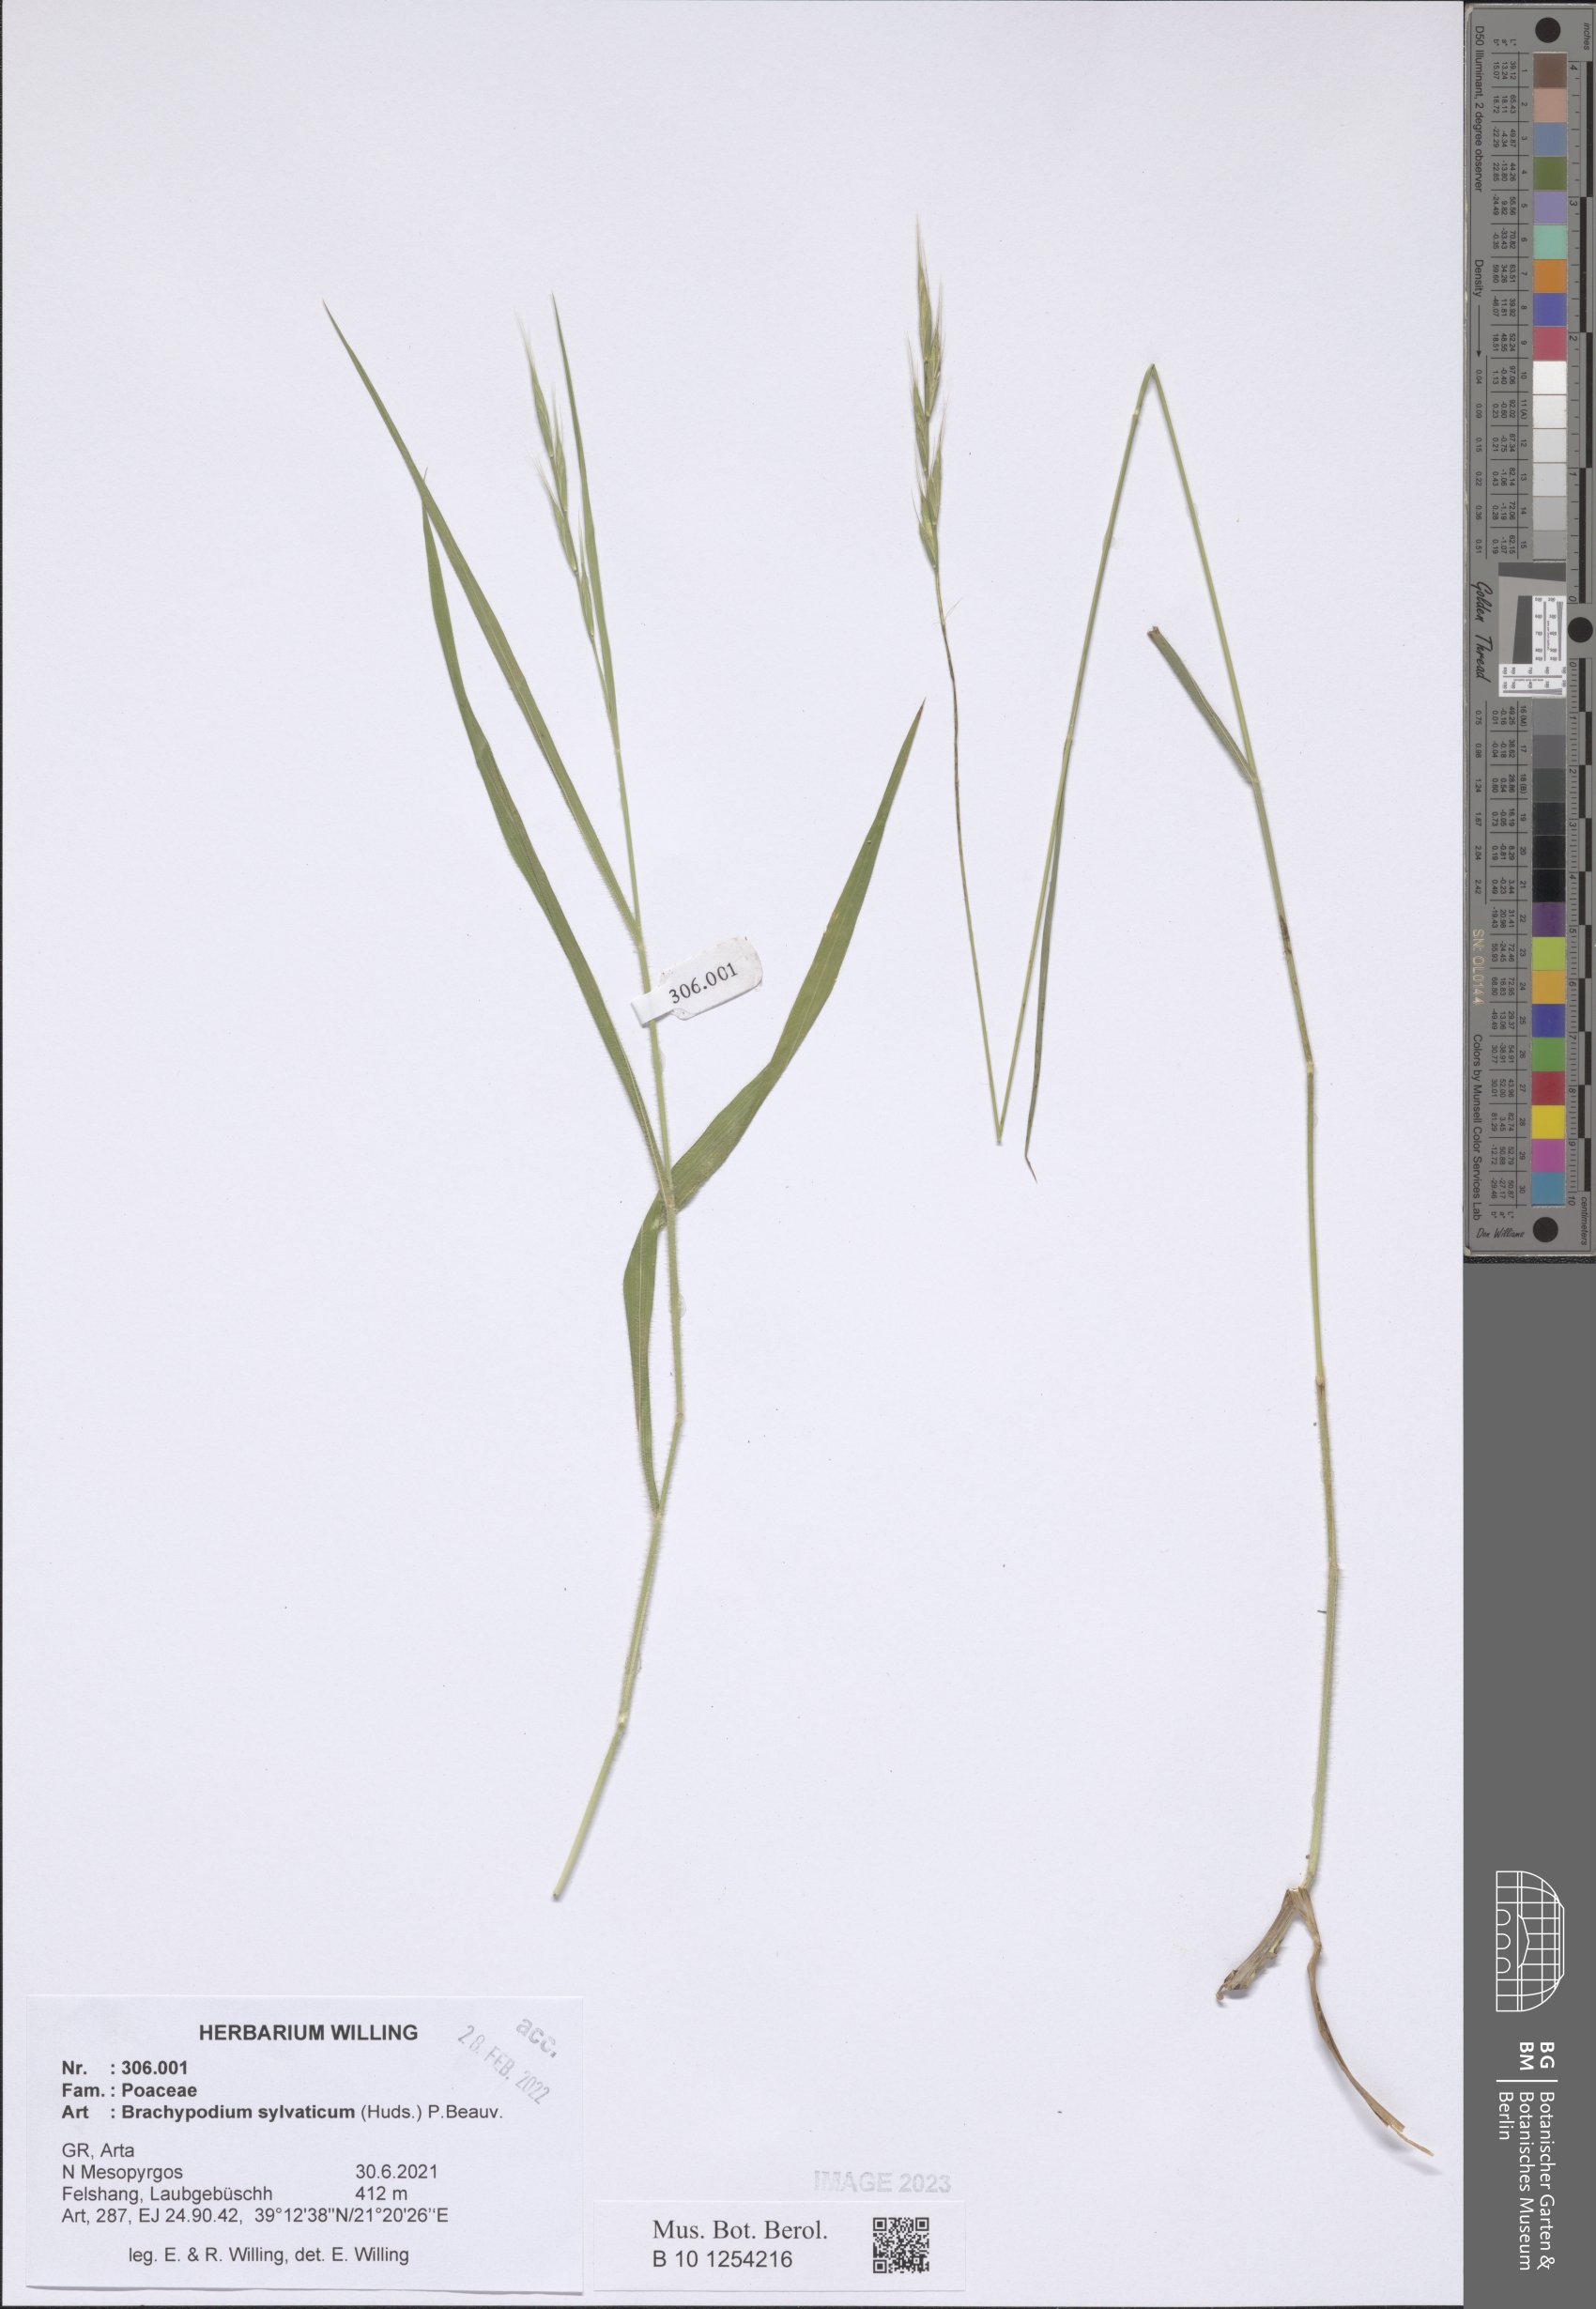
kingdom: Plantae
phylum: Tracheophyta
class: Liliopsida
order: Poales
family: Poaceae
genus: Brachypodium
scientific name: Brachypodium sylvaticum
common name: False-brome
